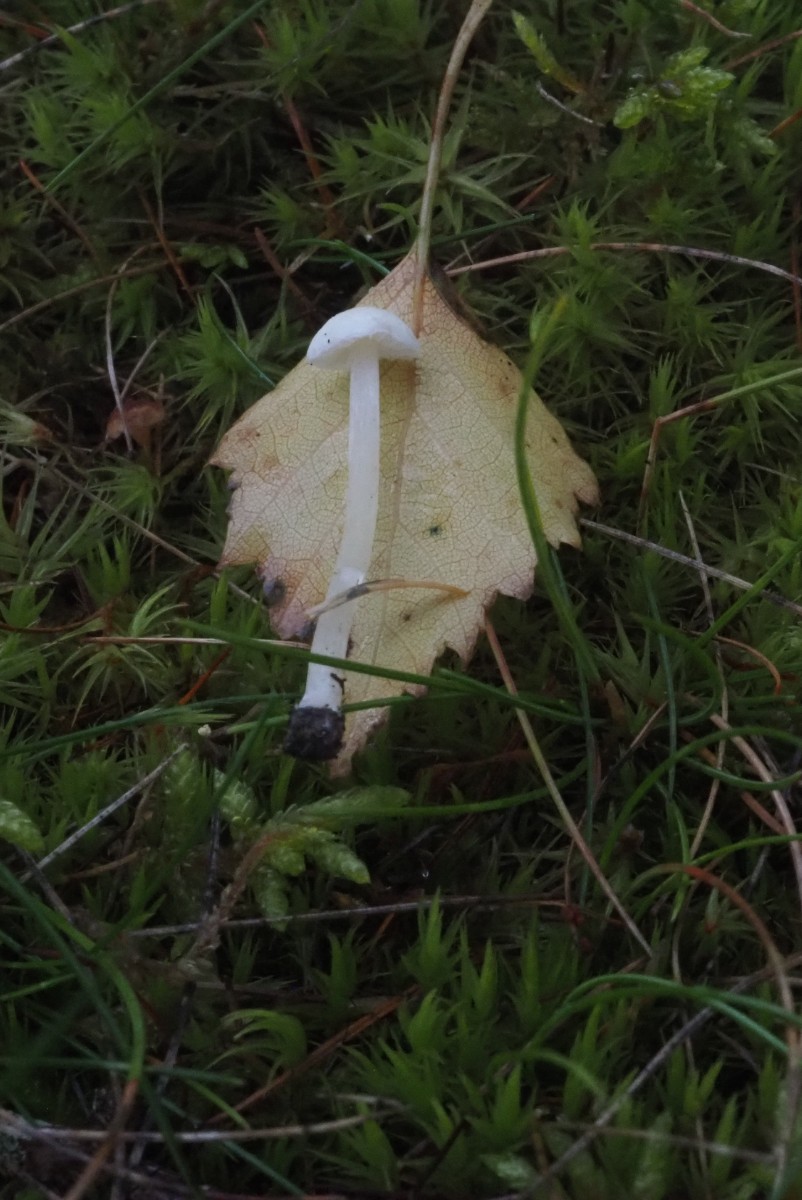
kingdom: Fungi
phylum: Basidiomycota
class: Agaricomycetes
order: Agaricales
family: Entolomataceae
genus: Entoloma
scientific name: Entoloma sericellum
